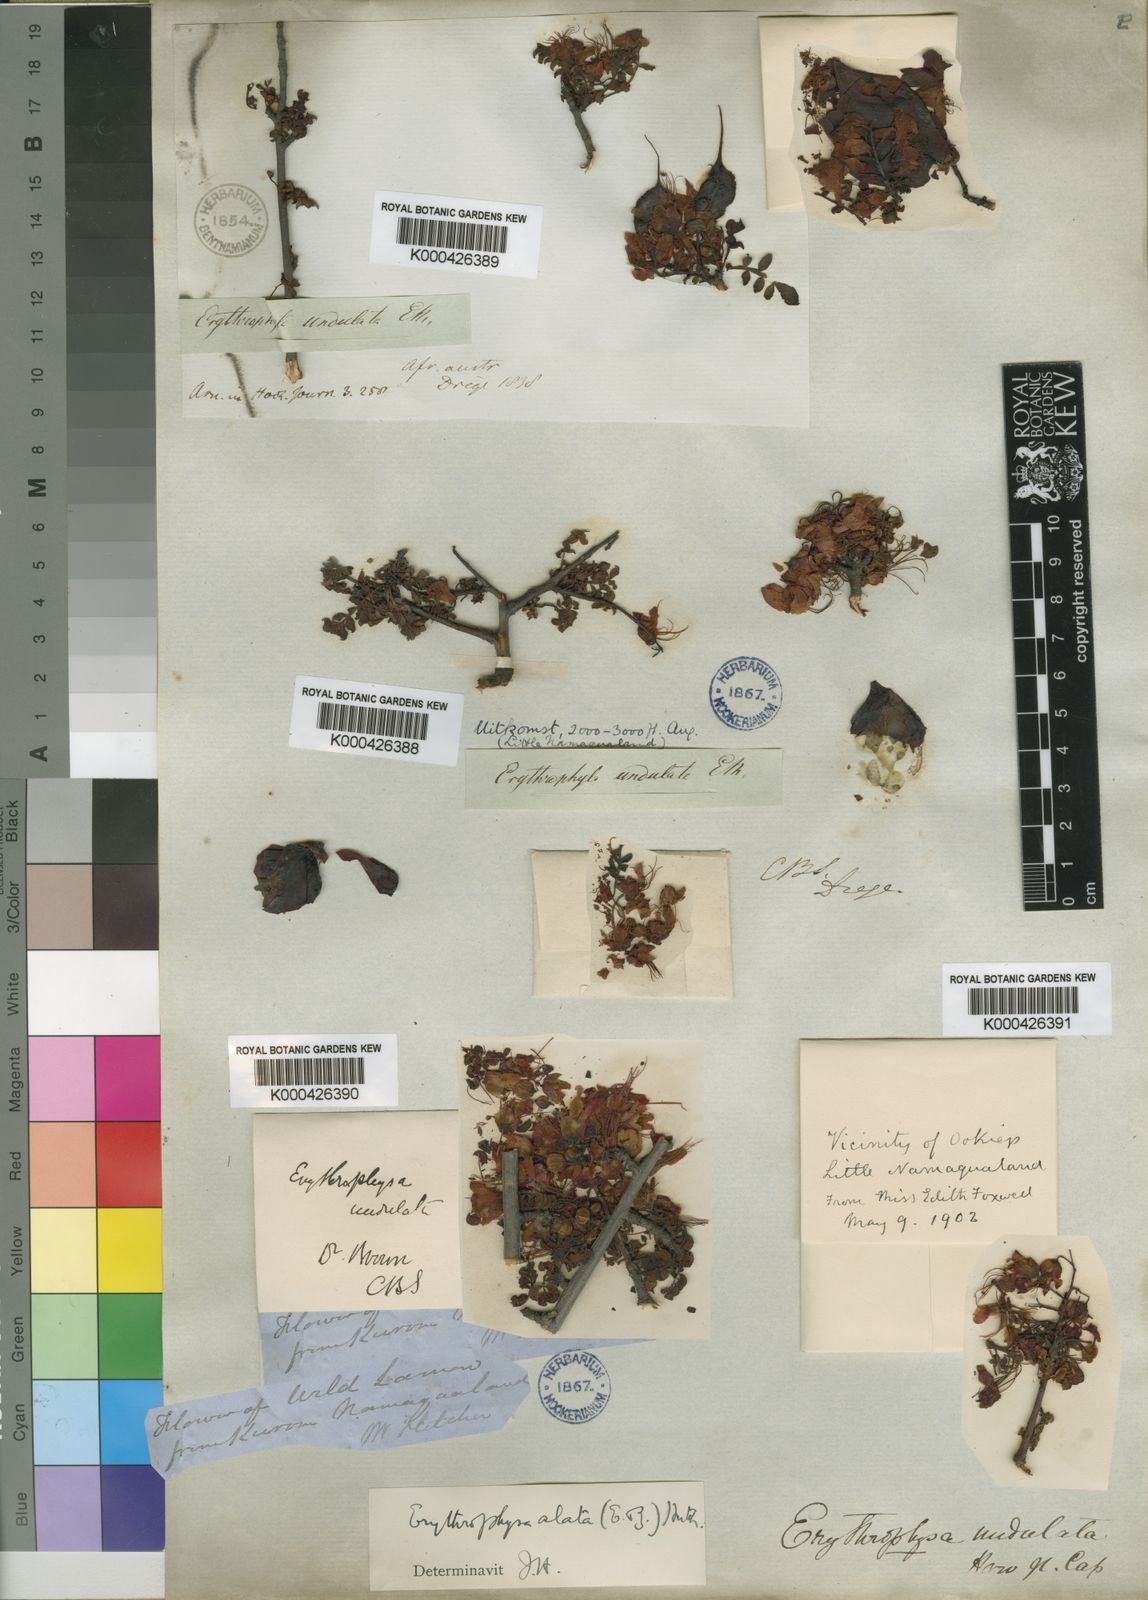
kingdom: Plantae
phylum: Tracheophyta
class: Magnoliopsida
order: Sapindales
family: Sapindaceae
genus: Erythrophysa
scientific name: Erythrophysa alata
